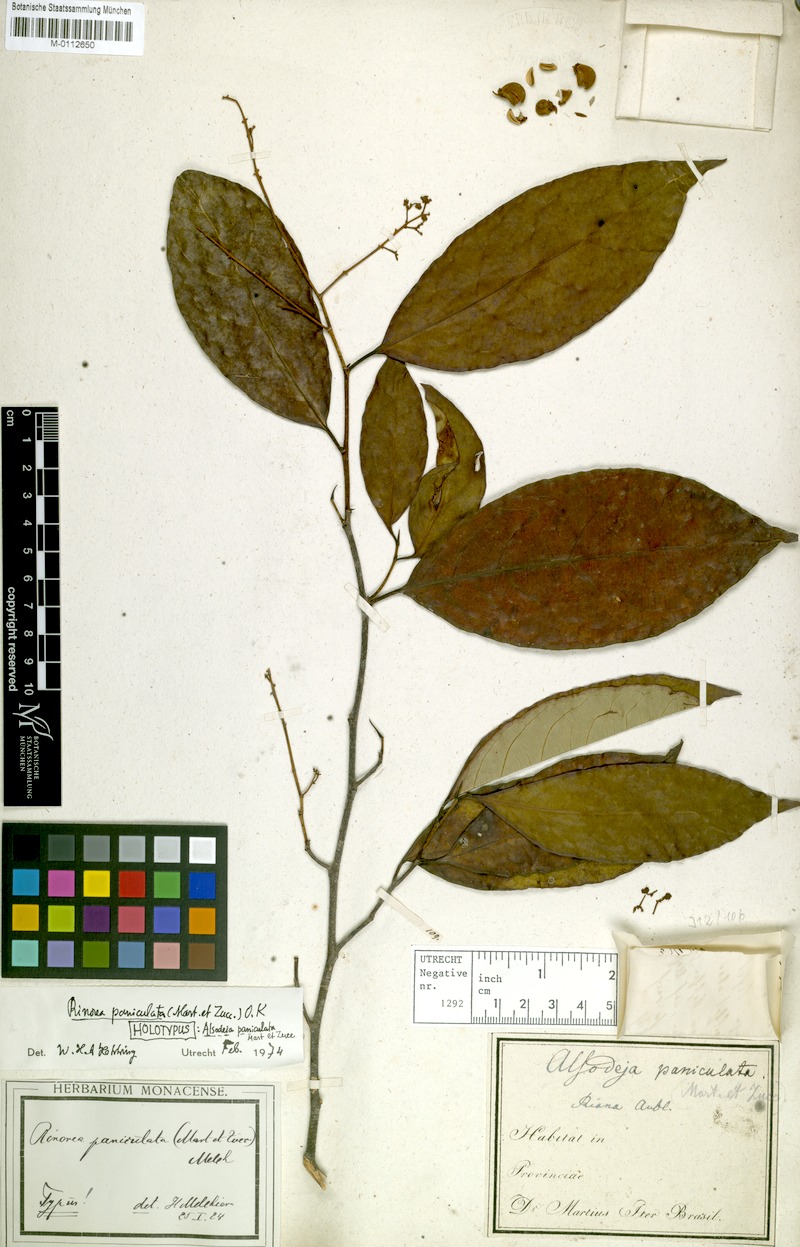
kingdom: Plantae
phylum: Tracheophyta
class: Magnoliopsida
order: Malpighiales
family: Violaceae
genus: Rinorea
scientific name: Rinorea paniculata
